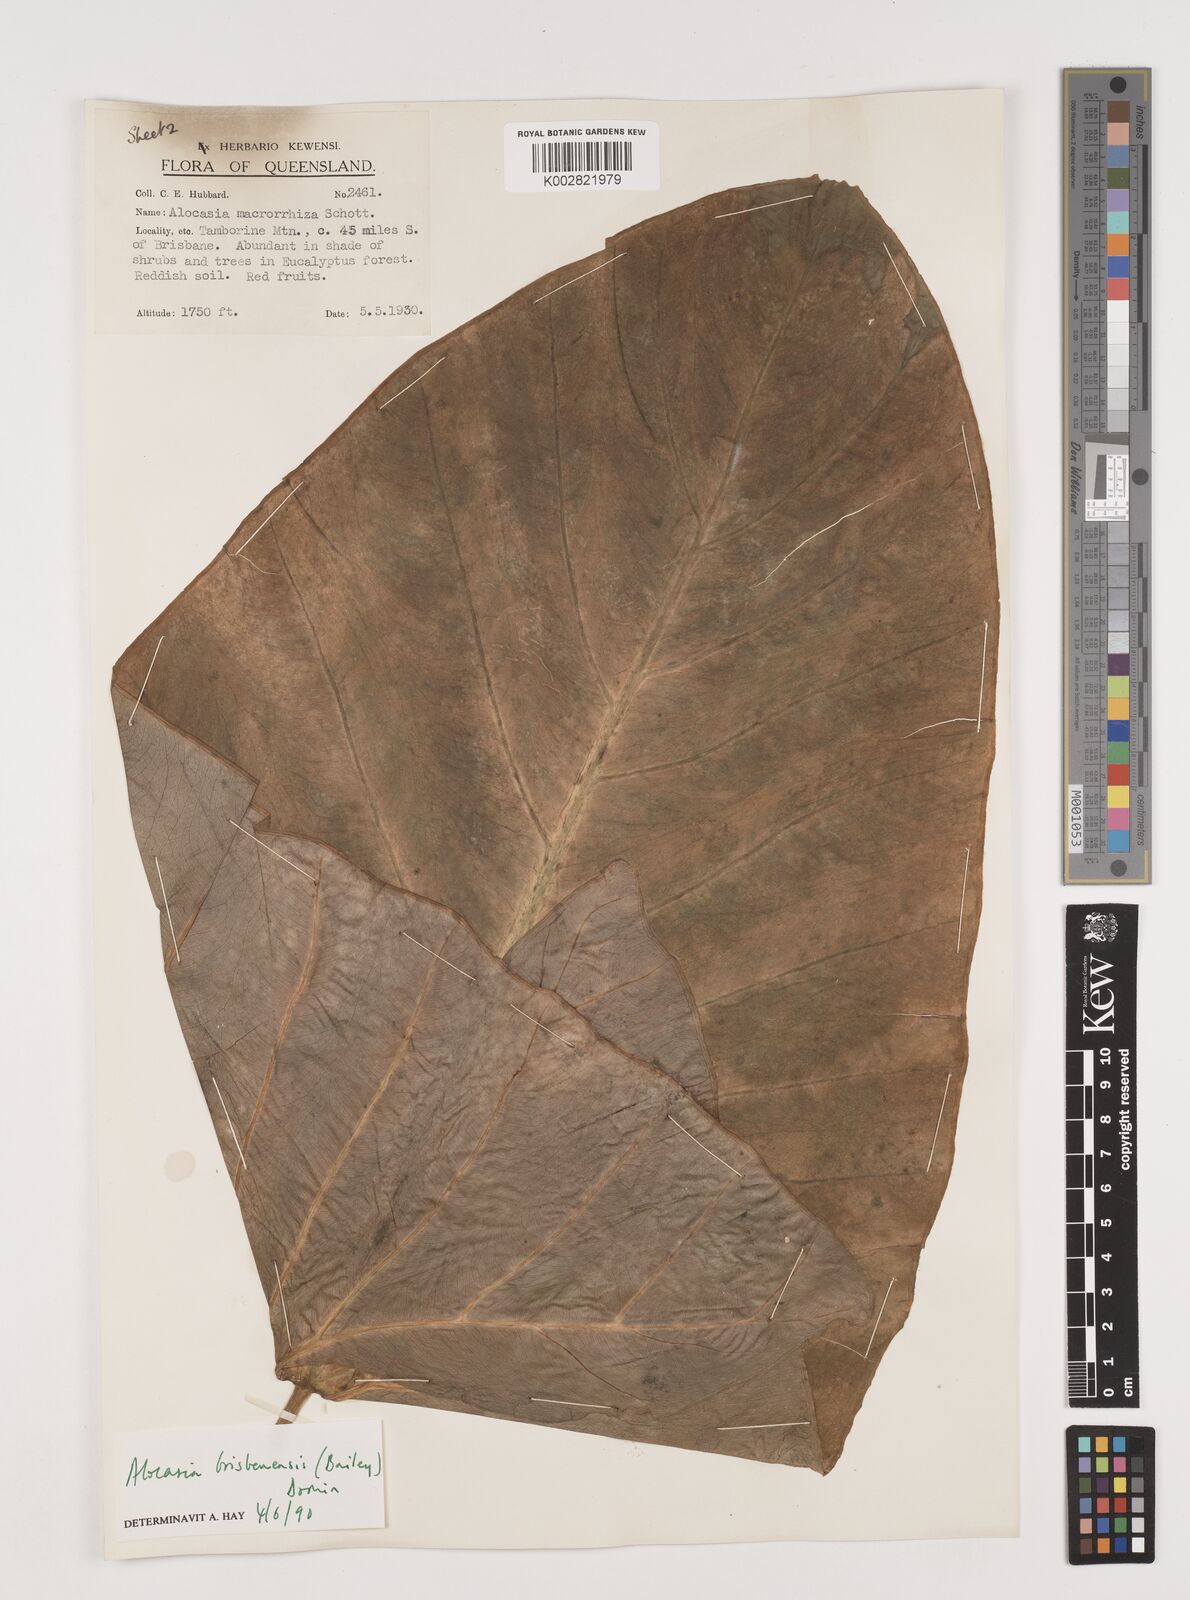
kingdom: Plantae
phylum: Tracheophyta
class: Liliopsida
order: Alismatales
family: Araceae
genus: Alocasia
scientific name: Alocasia brisbanensis
